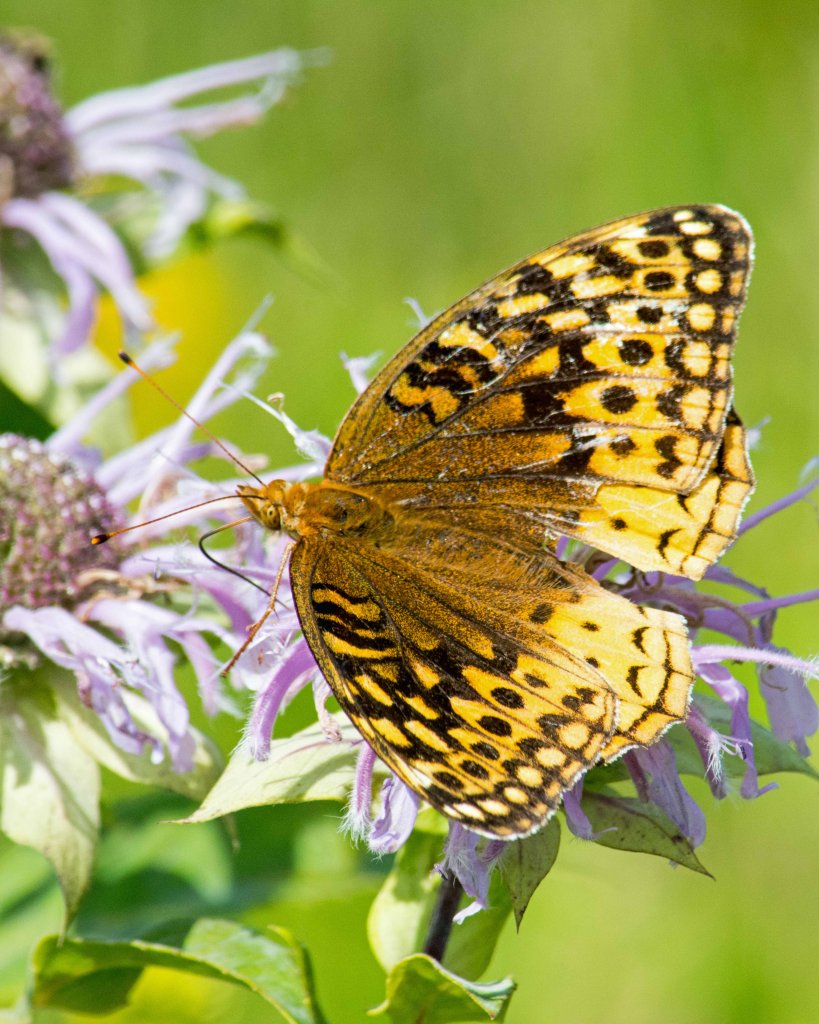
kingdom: Animalia
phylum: Arthropoda
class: Insecta
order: Lepidoptera
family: Nymphalidae
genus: Speyeria
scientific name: Speyeria cybele
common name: Great Spangled Fritillary
